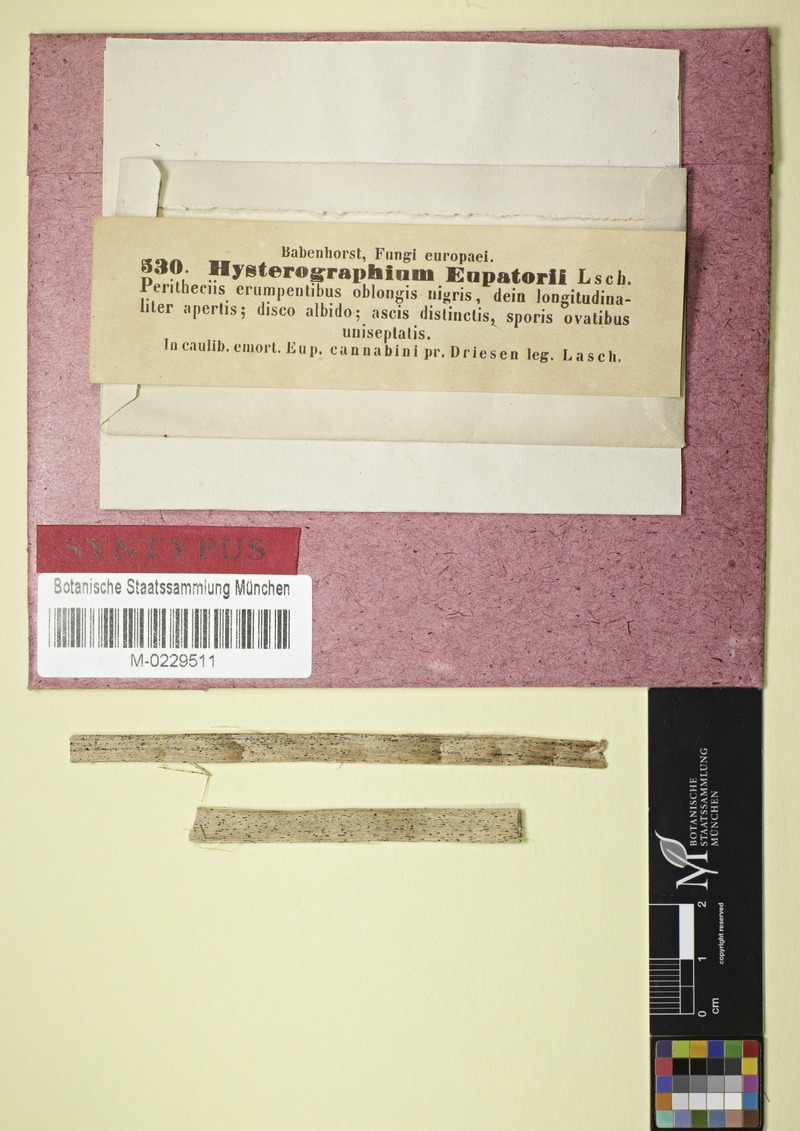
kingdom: Fungi
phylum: Ascomycota
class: Dothideomycetes
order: Mytilinidiales
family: Gloniaceae
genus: Glonium
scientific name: Glonium
